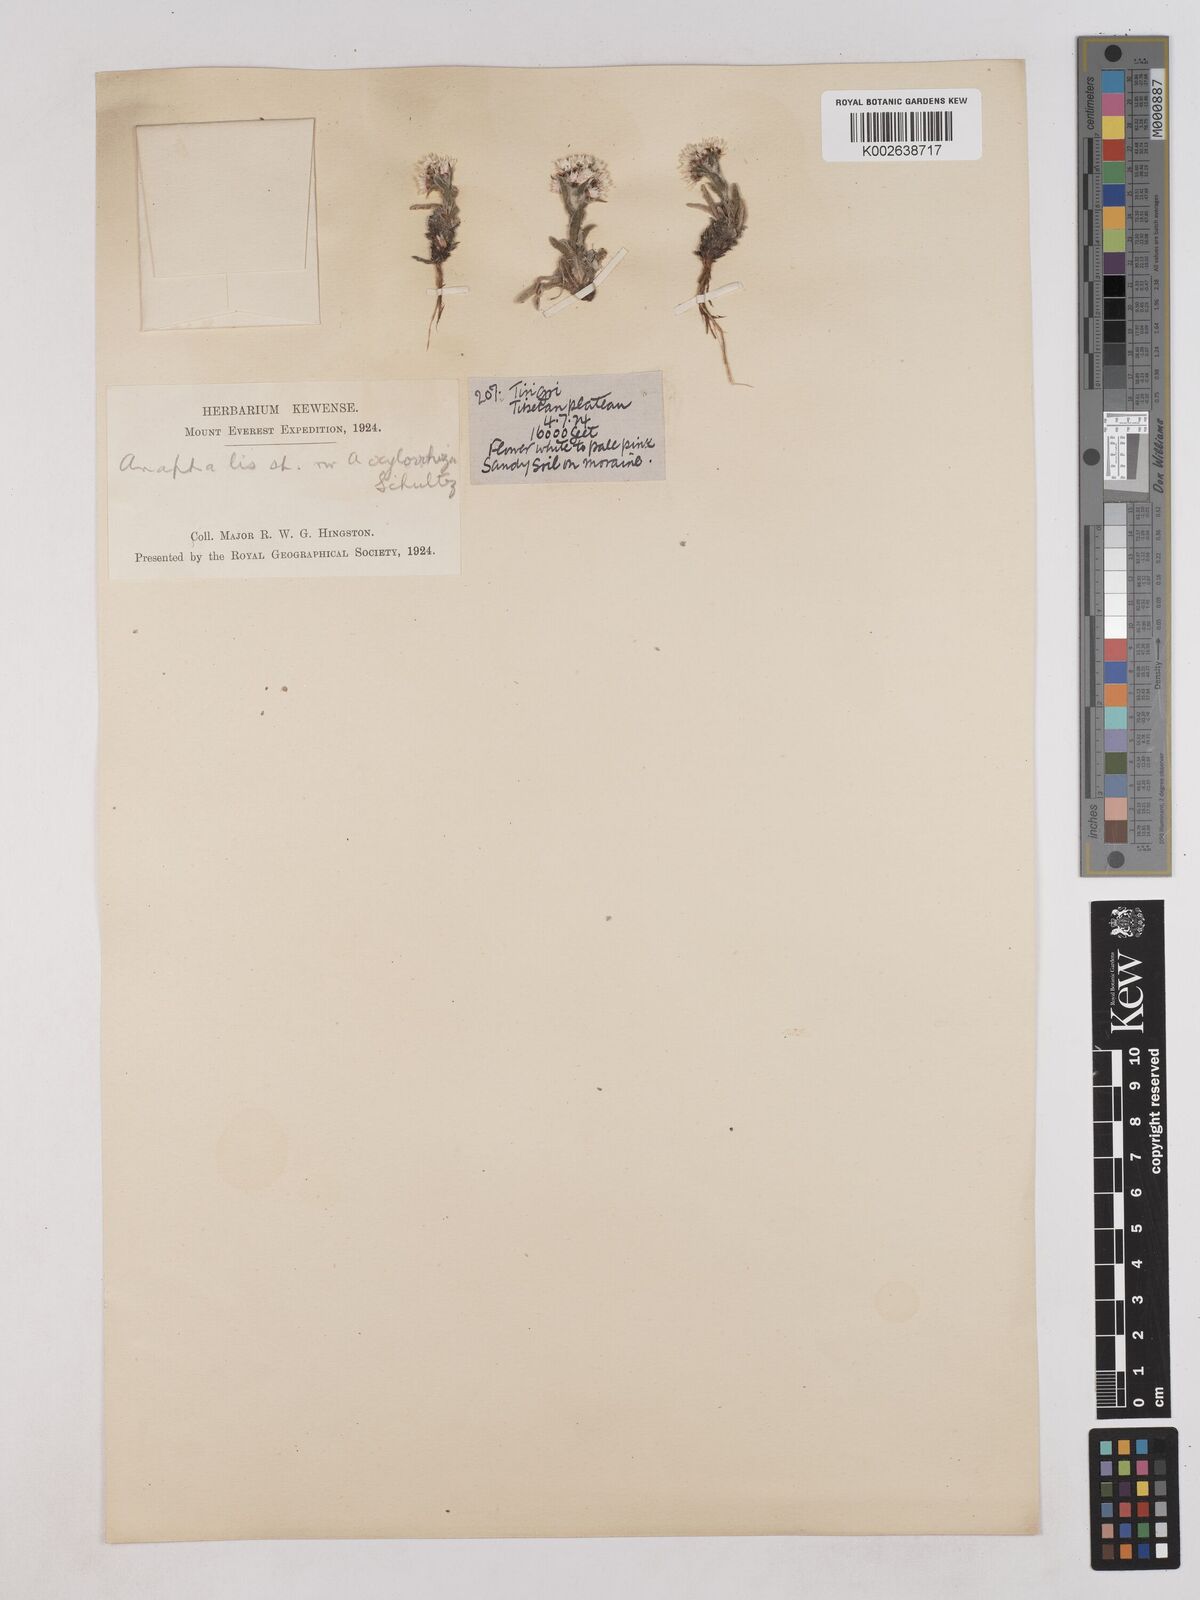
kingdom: Plantae
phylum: Tracheophyta
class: Magnoliopsida
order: Asterales
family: Asteraceae
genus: Anaphalis
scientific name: Anaphalis xylorhiza
